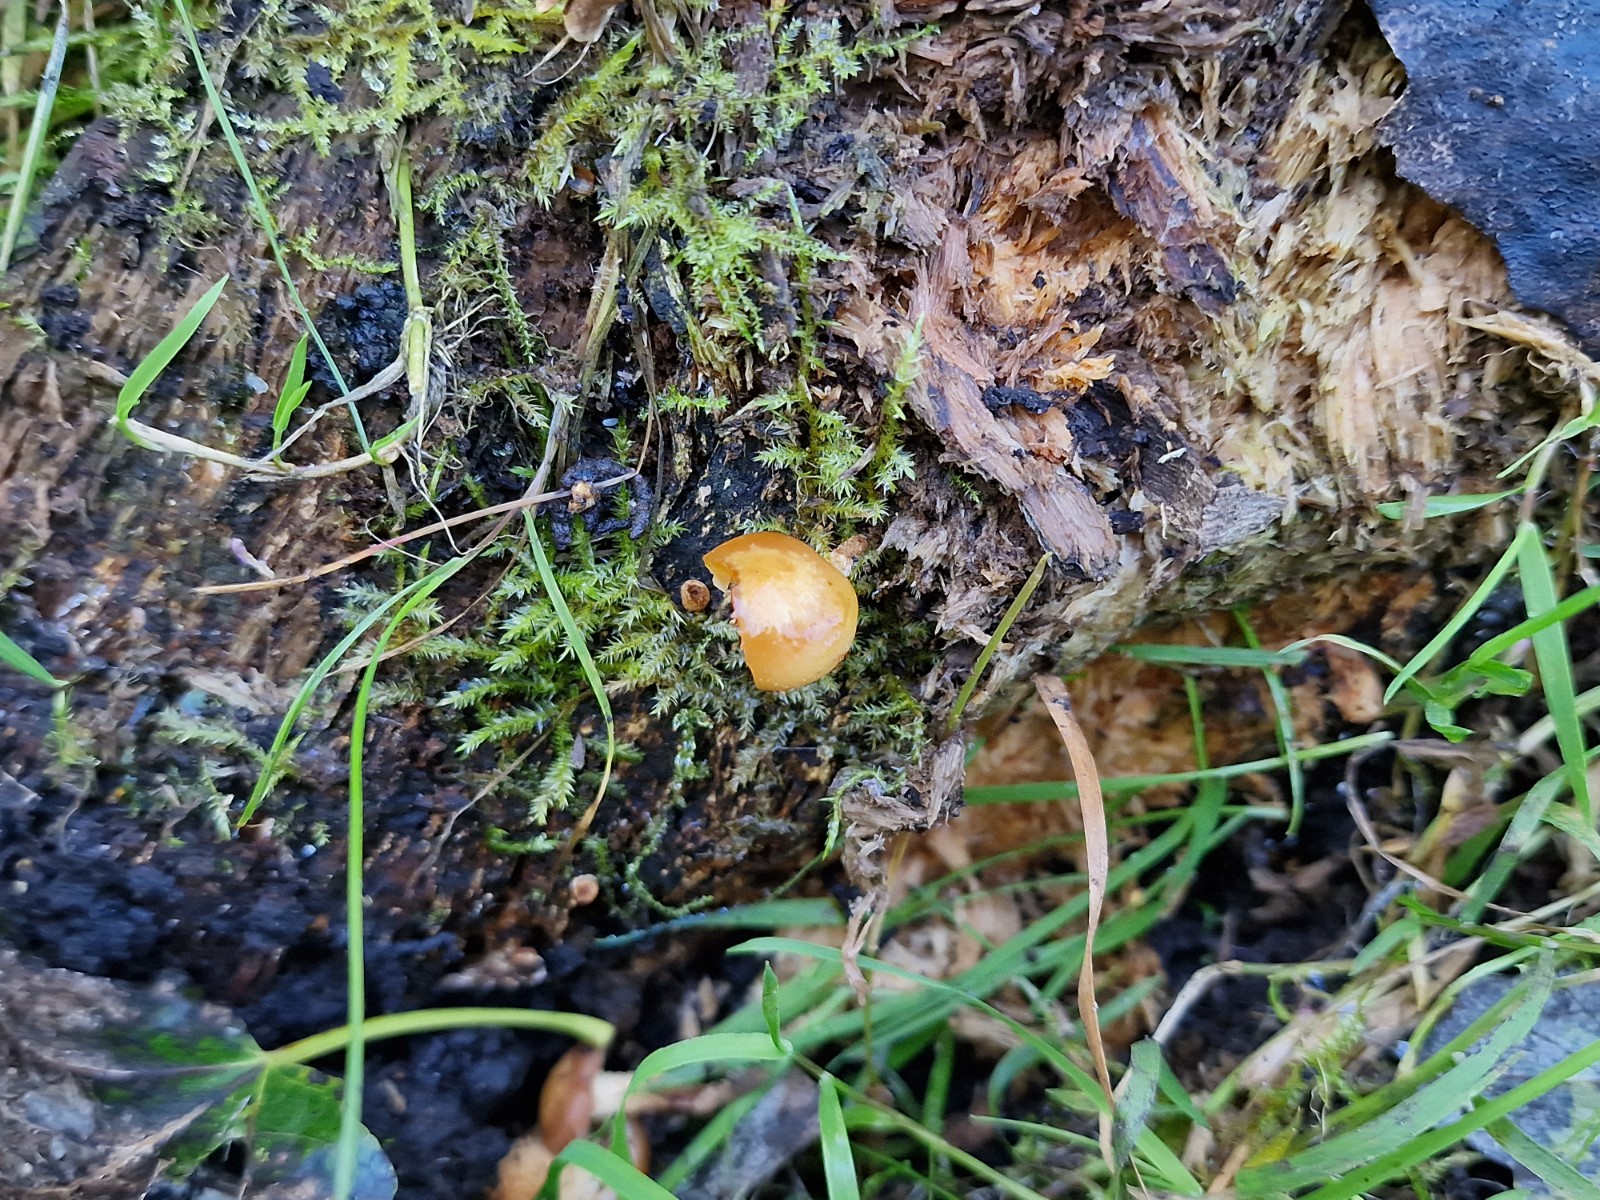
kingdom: Fungi
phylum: Basidiomycota
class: Agaricomycetes
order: Agaricales
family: Strophariaceae
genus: Kuehneromyces
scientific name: Kuehneromyces mutabilis
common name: foranderlig skælhat
